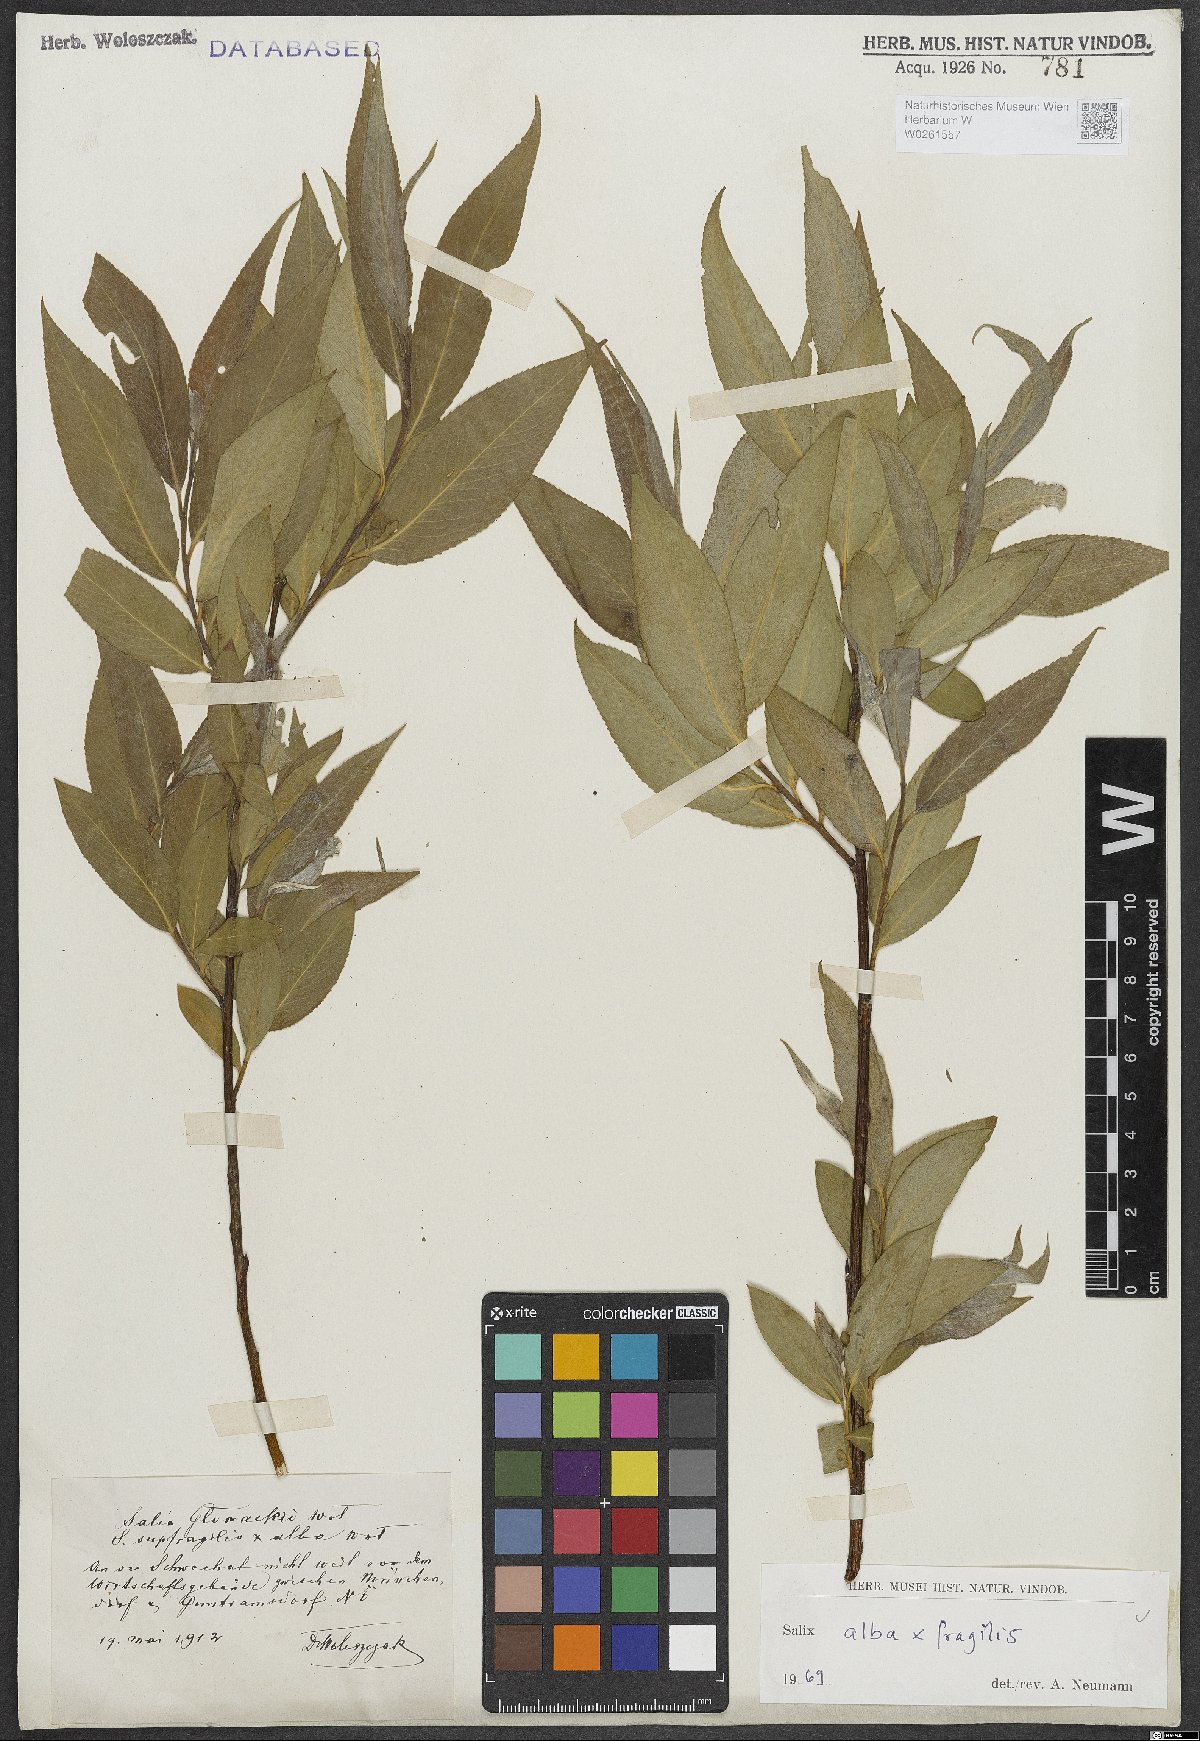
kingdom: Plantae
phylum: Tracheophyta
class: Magnoliopsida
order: Malpighiales
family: Salicaceae
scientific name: Salicaceae
